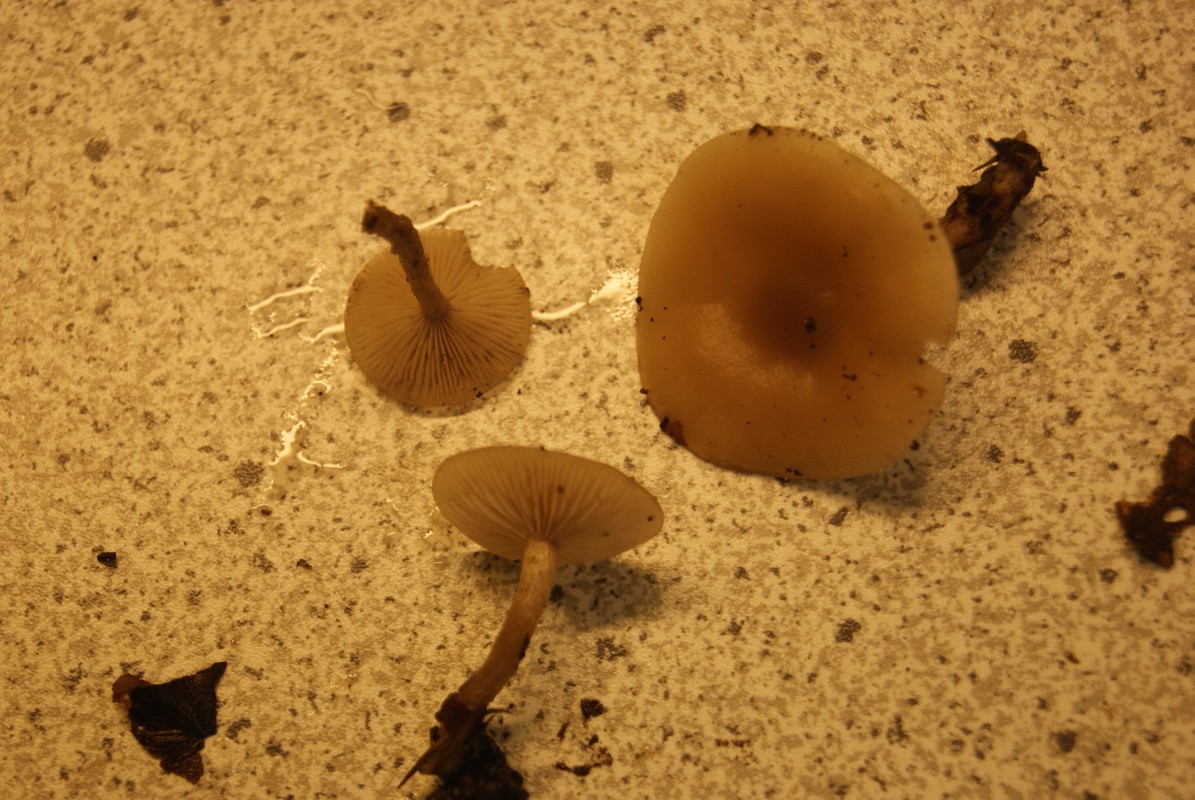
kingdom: Fungi
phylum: Basidiomycota
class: Agaricomycetes
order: Agaricales
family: Tricholomataceae
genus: Clitocybe
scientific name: Clitocybe fragrans
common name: vellugtende tragthat
